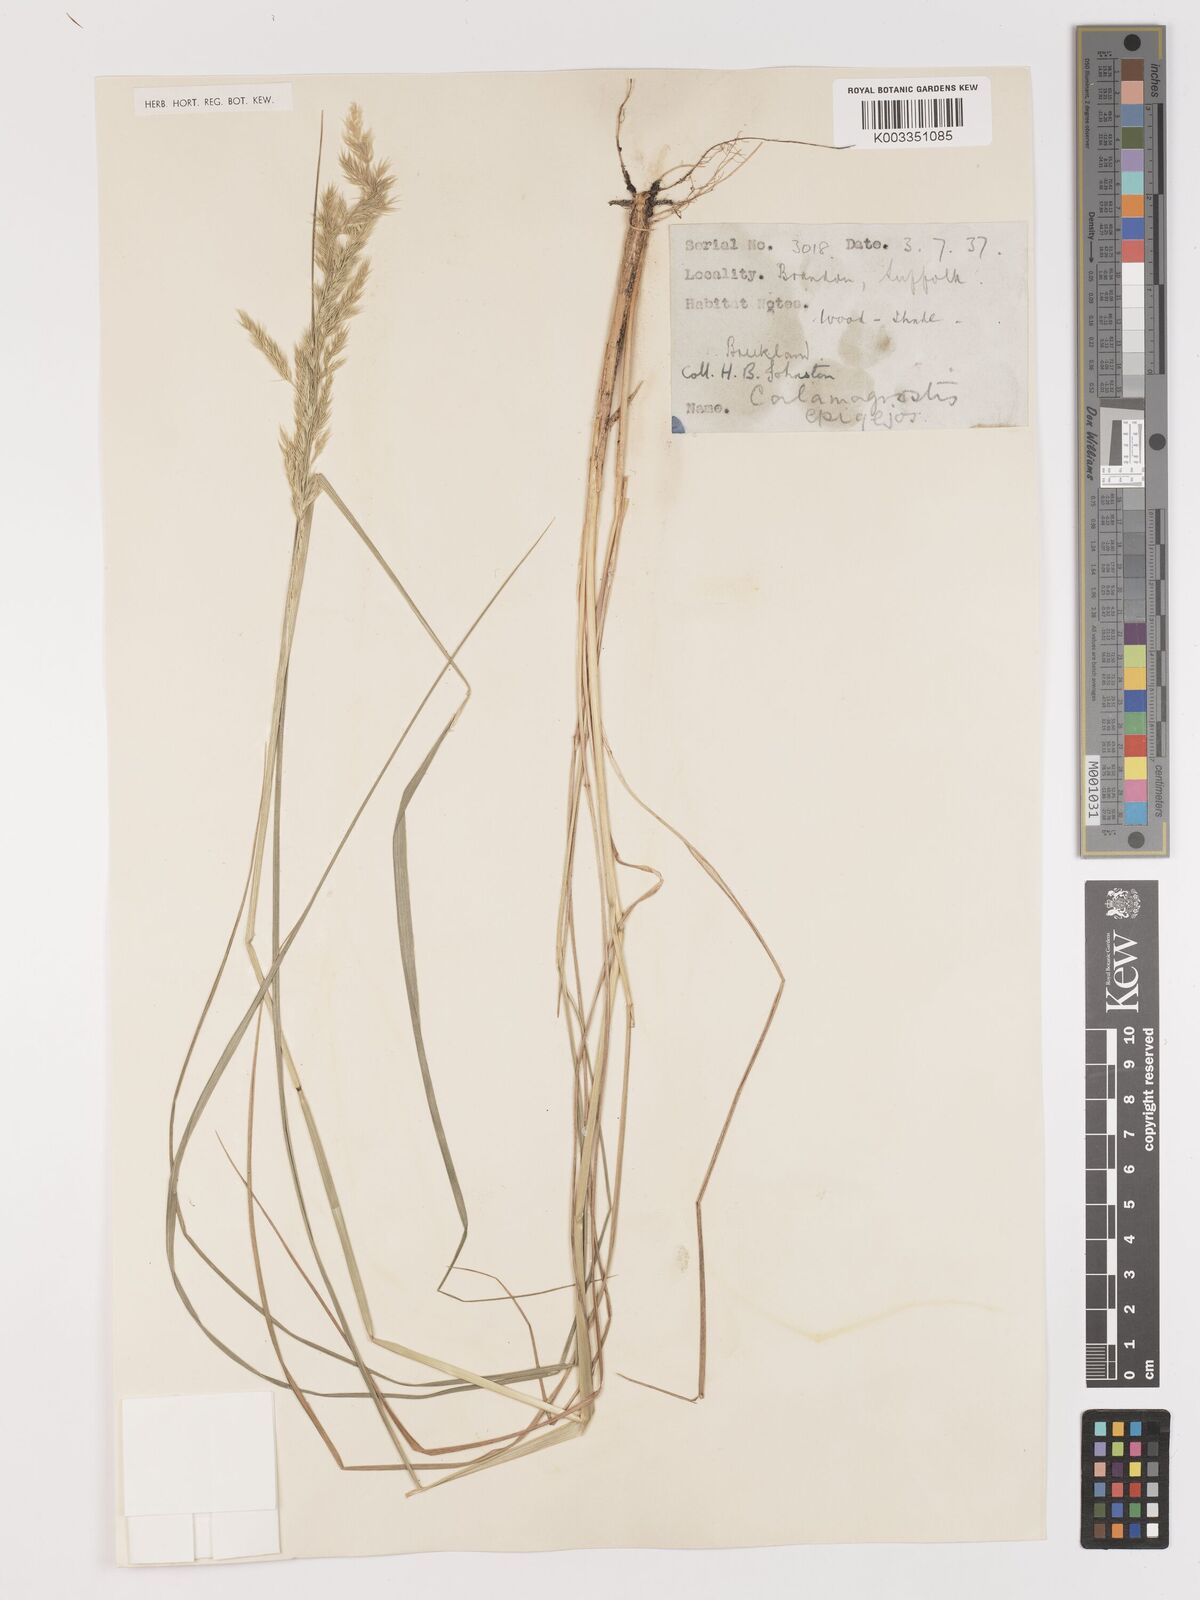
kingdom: Plantae
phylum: Tracheophyta
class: Liliopsida
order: Poales
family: Poaceae
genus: Calamagrostis
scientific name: Calamagrostis
